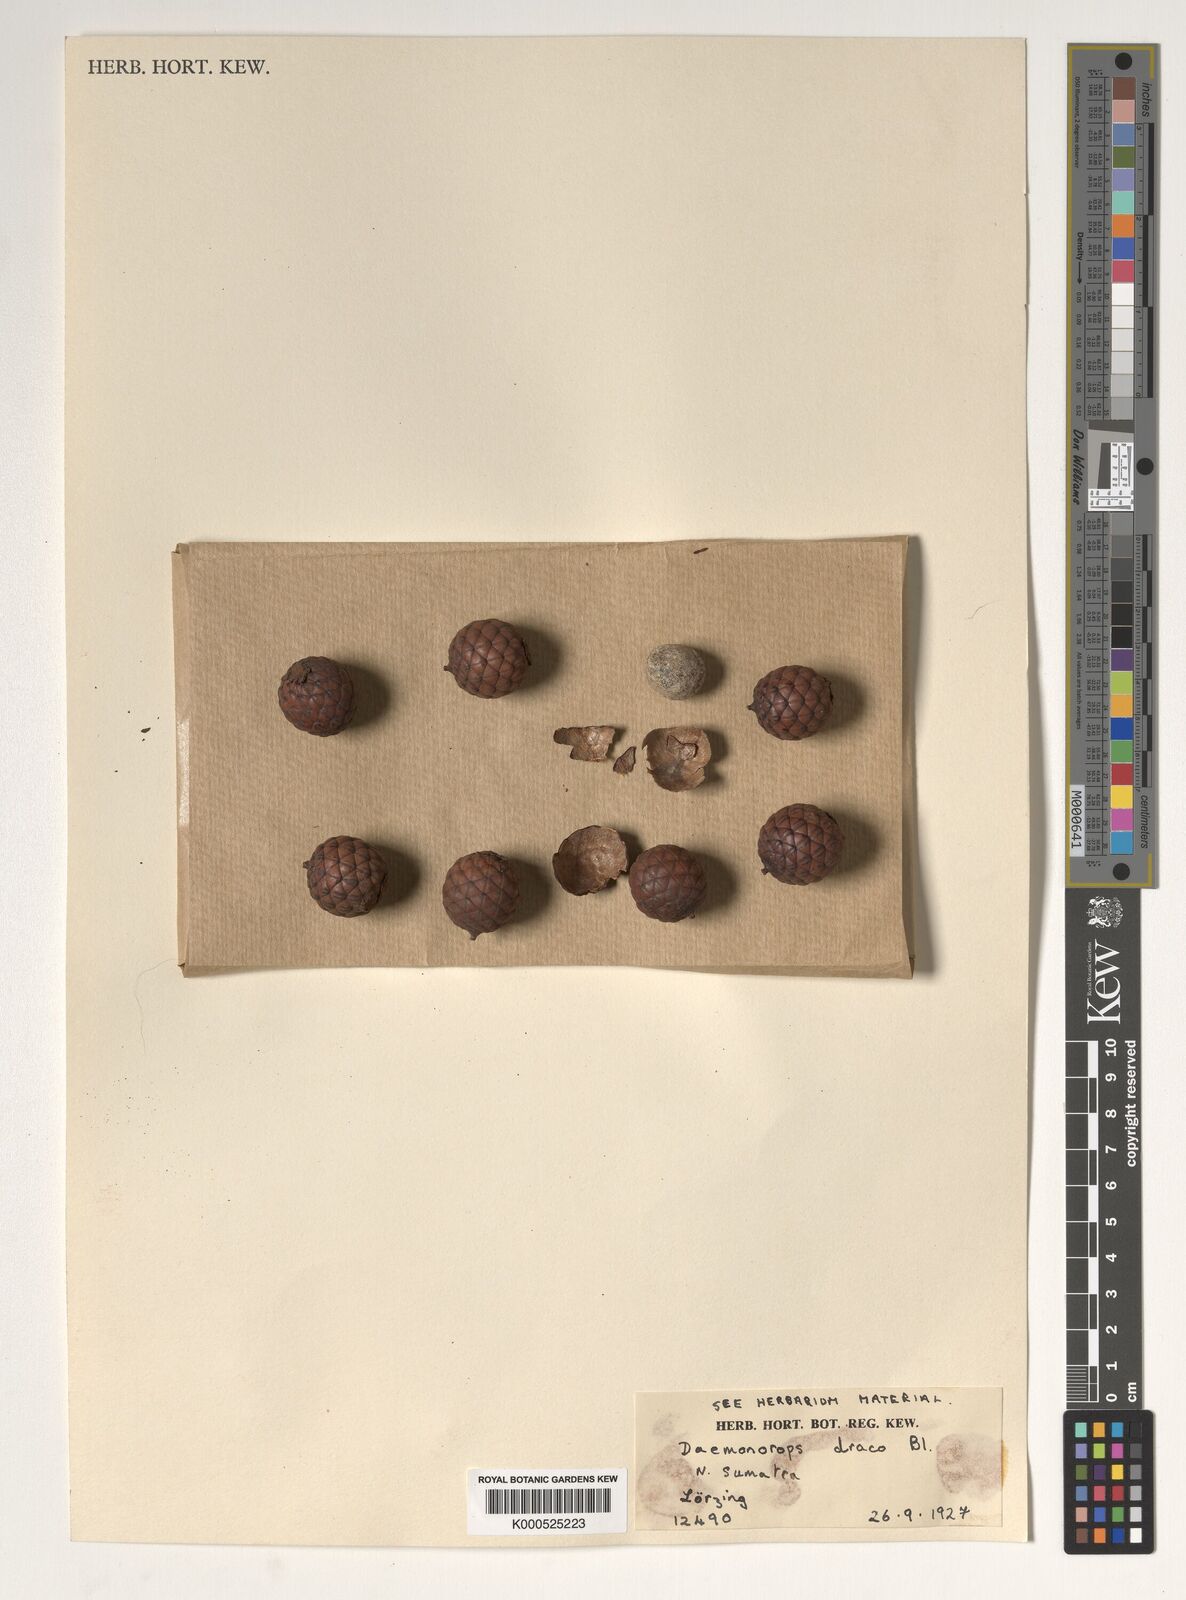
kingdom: Plantae
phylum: Tracheophyta
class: Liliopsida
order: Arecales
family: Arecaceae
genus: Calamus
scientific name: Calamus gracilipes
